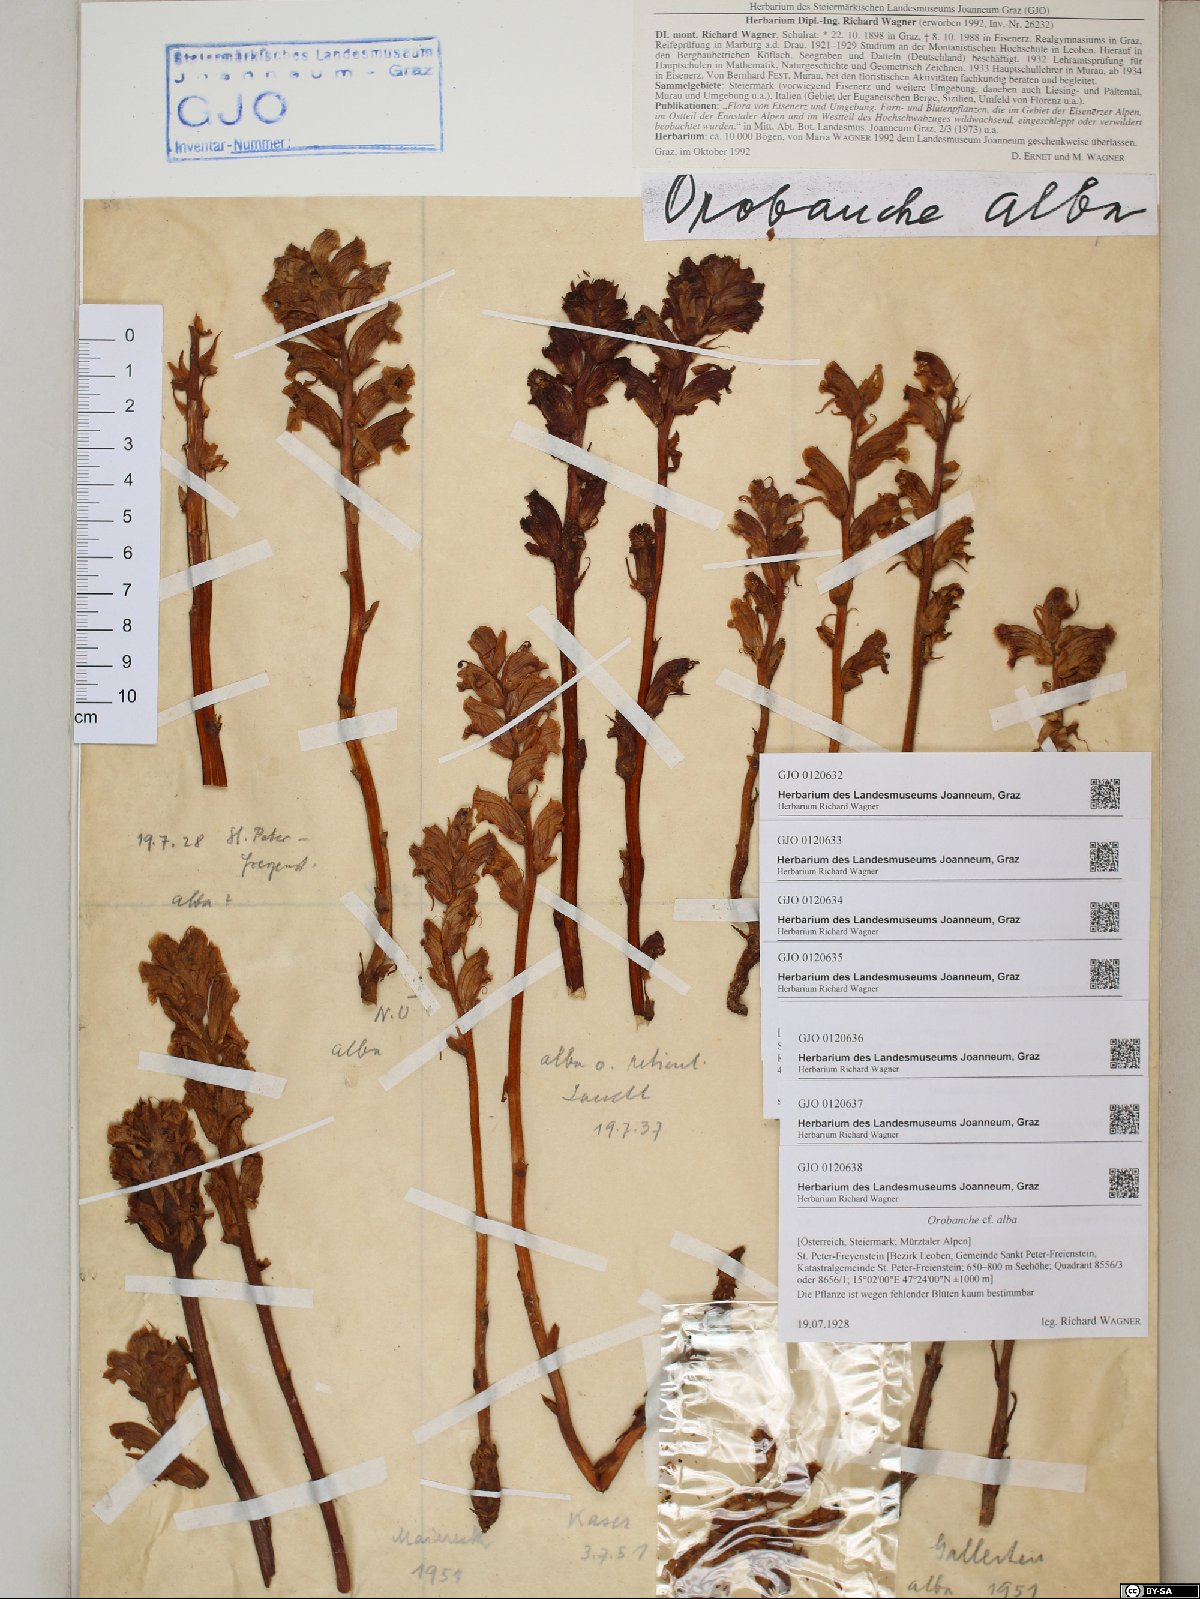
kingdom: Plantae
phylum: Tracheophyta
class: Magnoliopsida
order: Lamiales
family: Orobanchaceae
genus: Orobanche
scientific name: Orobanche alba
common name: Thyme broomrape
